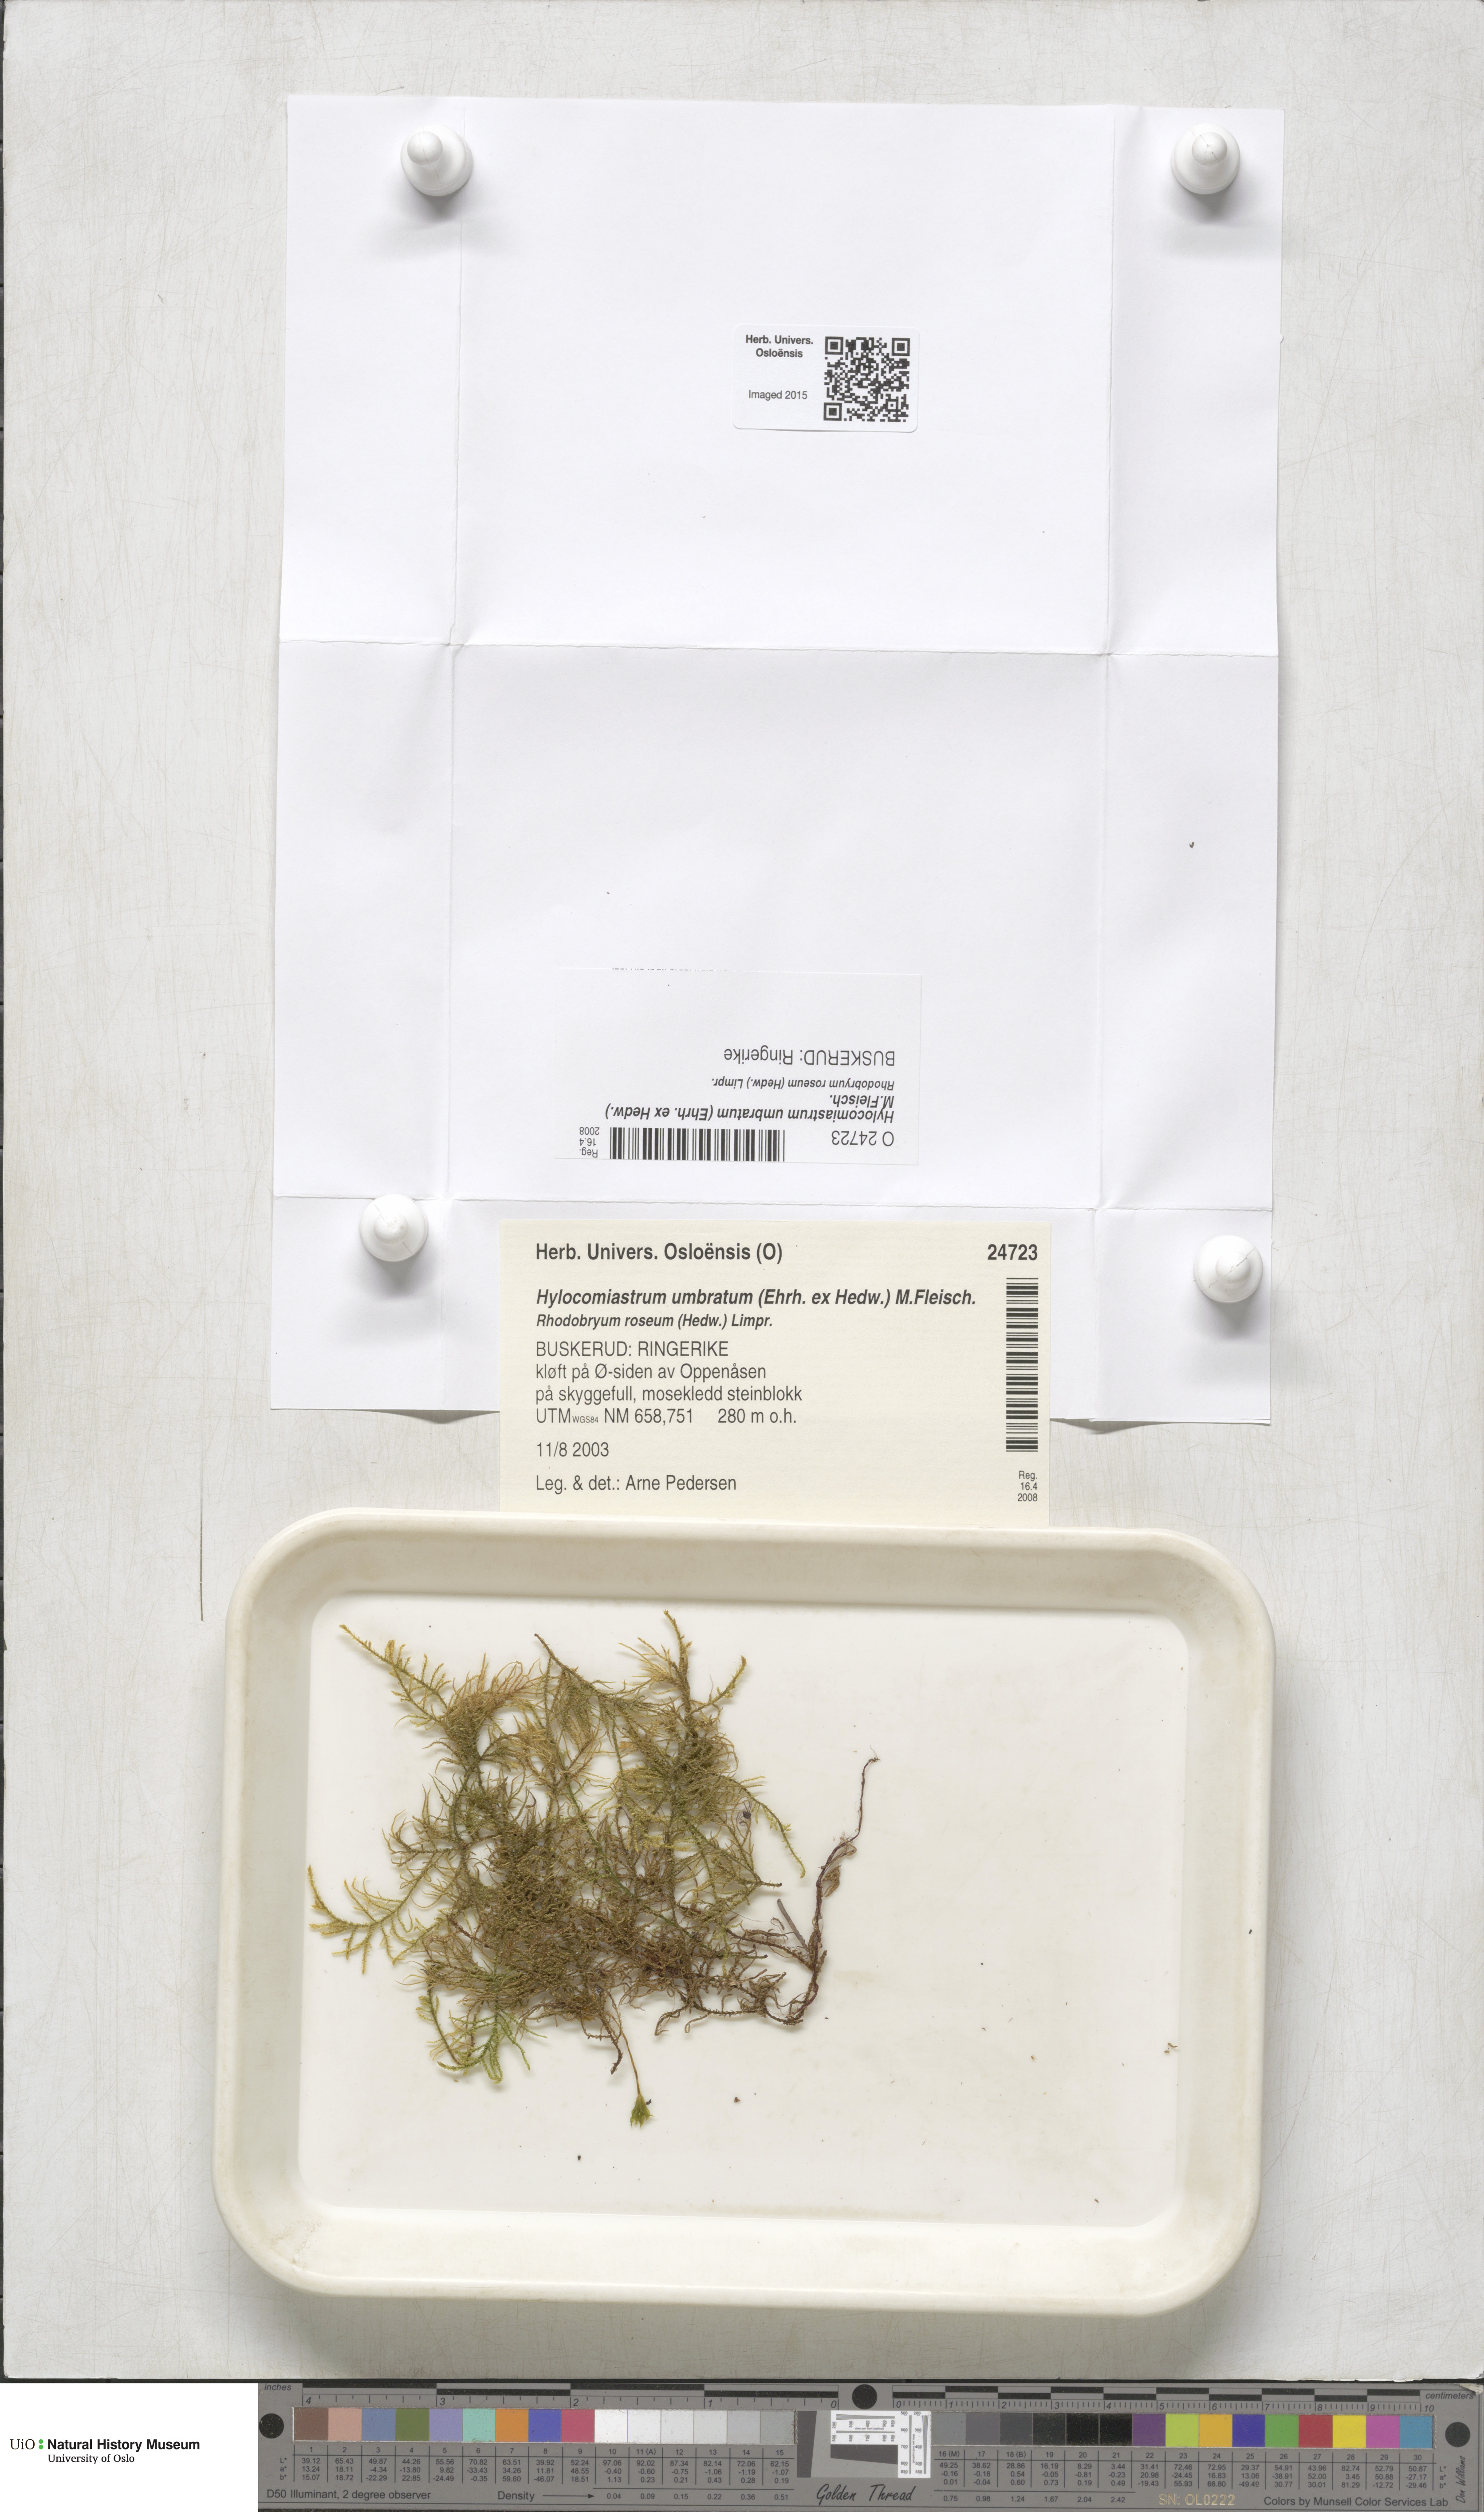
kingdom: Plantae
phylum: Bryophyta
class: Bryopsida
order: Hypnales
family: Hylocomiaceae
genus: Hylocomiastrum
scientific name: Hylocomiastrum umbratum
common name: Shaded woods moss
